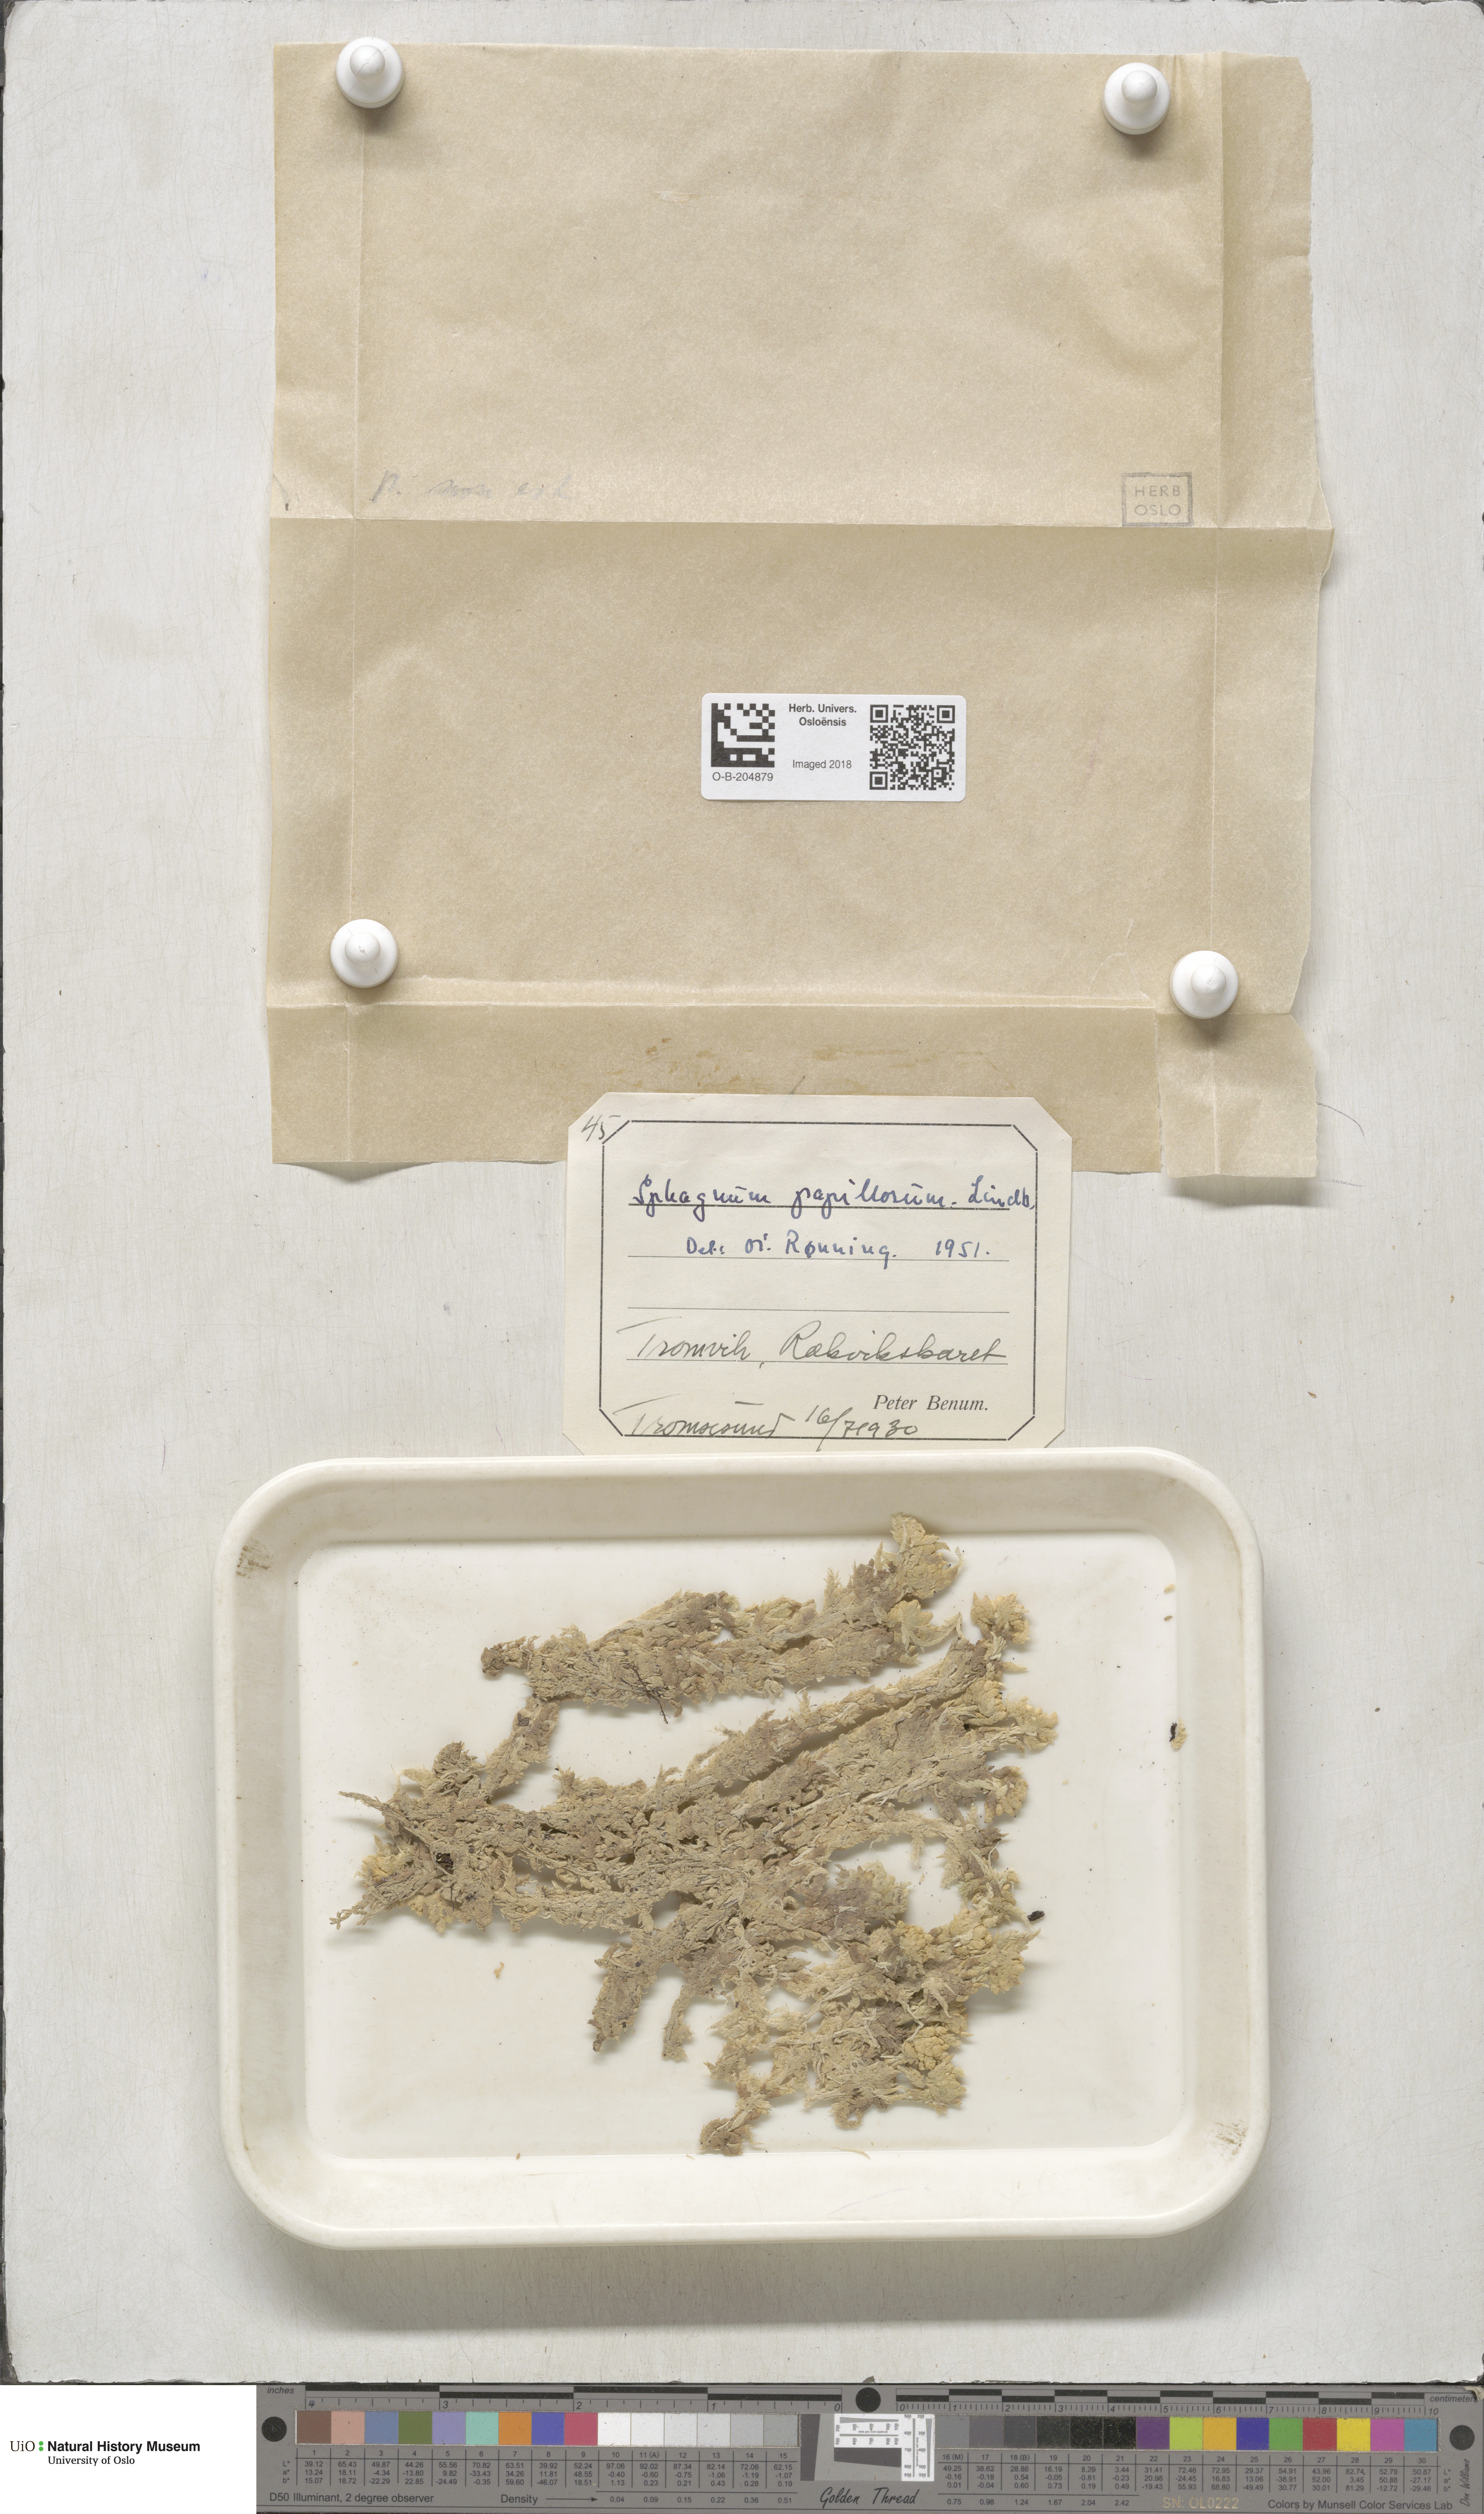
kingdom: Plantae
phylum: Bryophyta
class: Sphagnopsida
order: Sphagnales
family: Sphagnaceae
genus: Sphagnum
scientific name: Sphagnum papillosum
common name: Papillose peat moss
